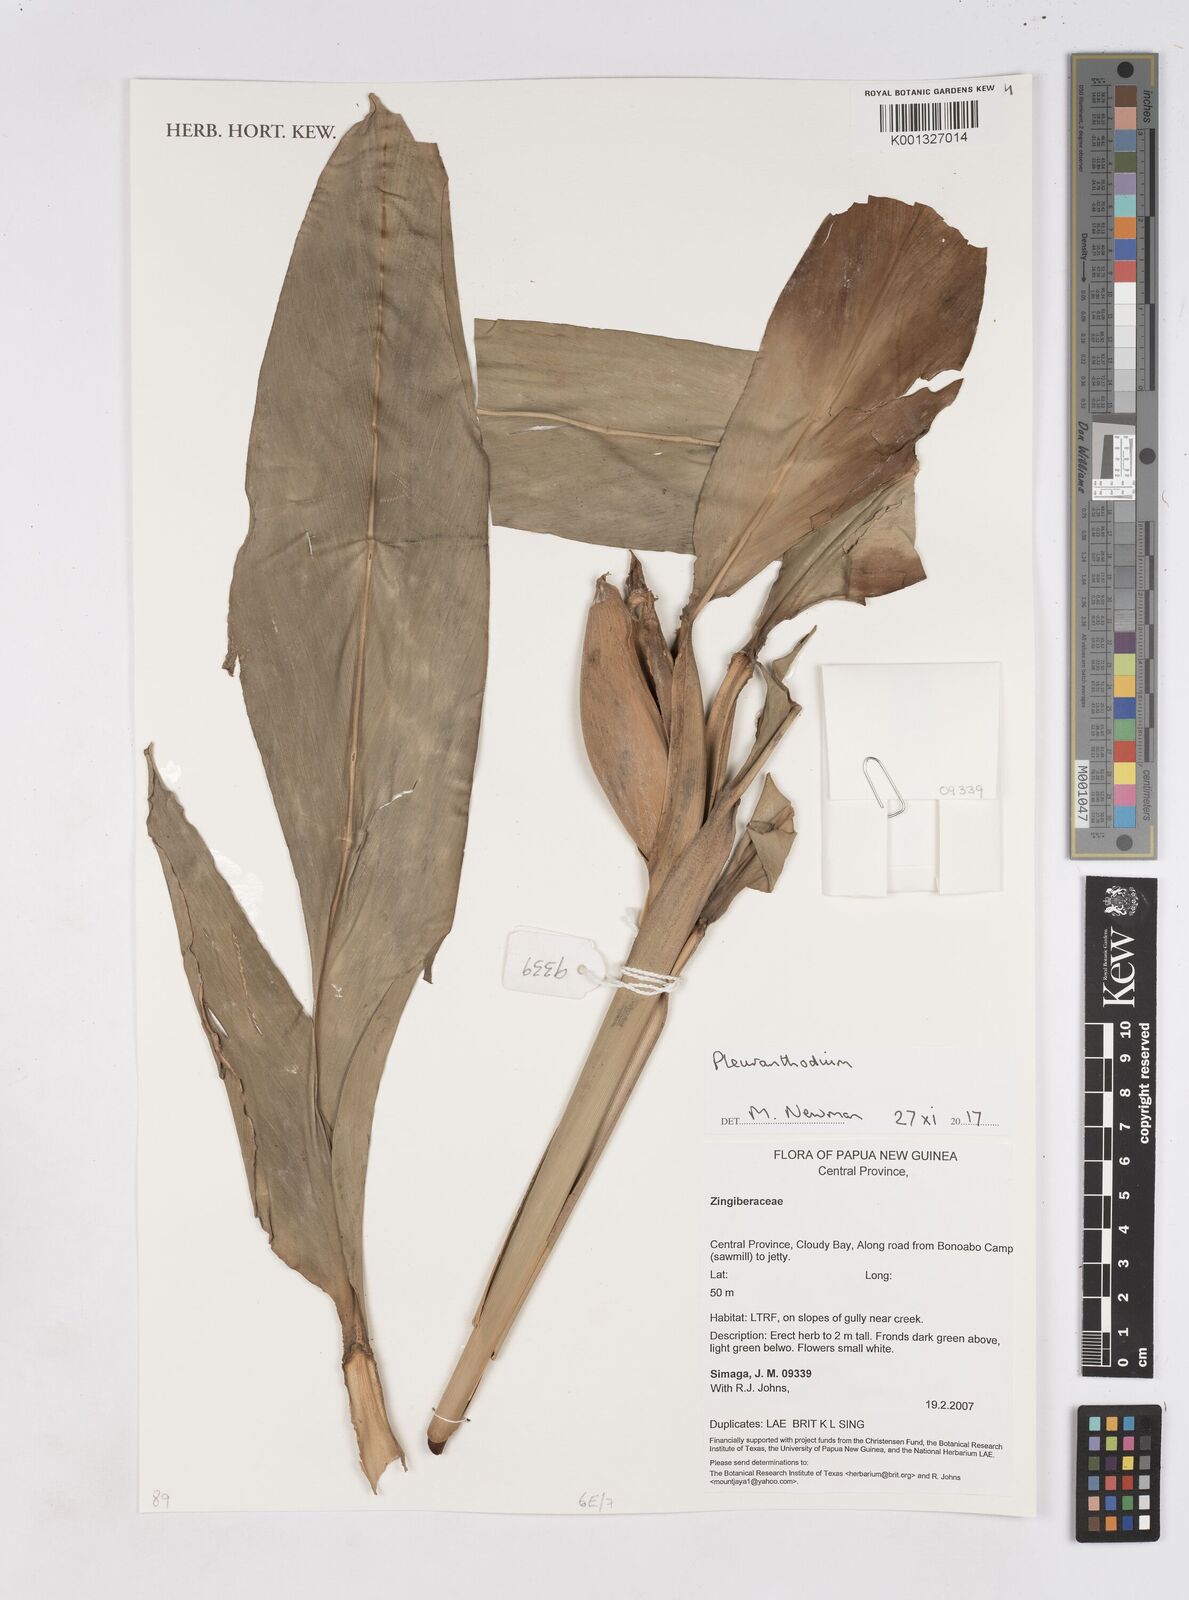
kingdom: Plantae
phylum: Tracheophyta
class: Liliopsida
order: Zingiberales
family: Zingiberaceae
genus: Pleuranthodium
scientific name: Pleuranthodium
